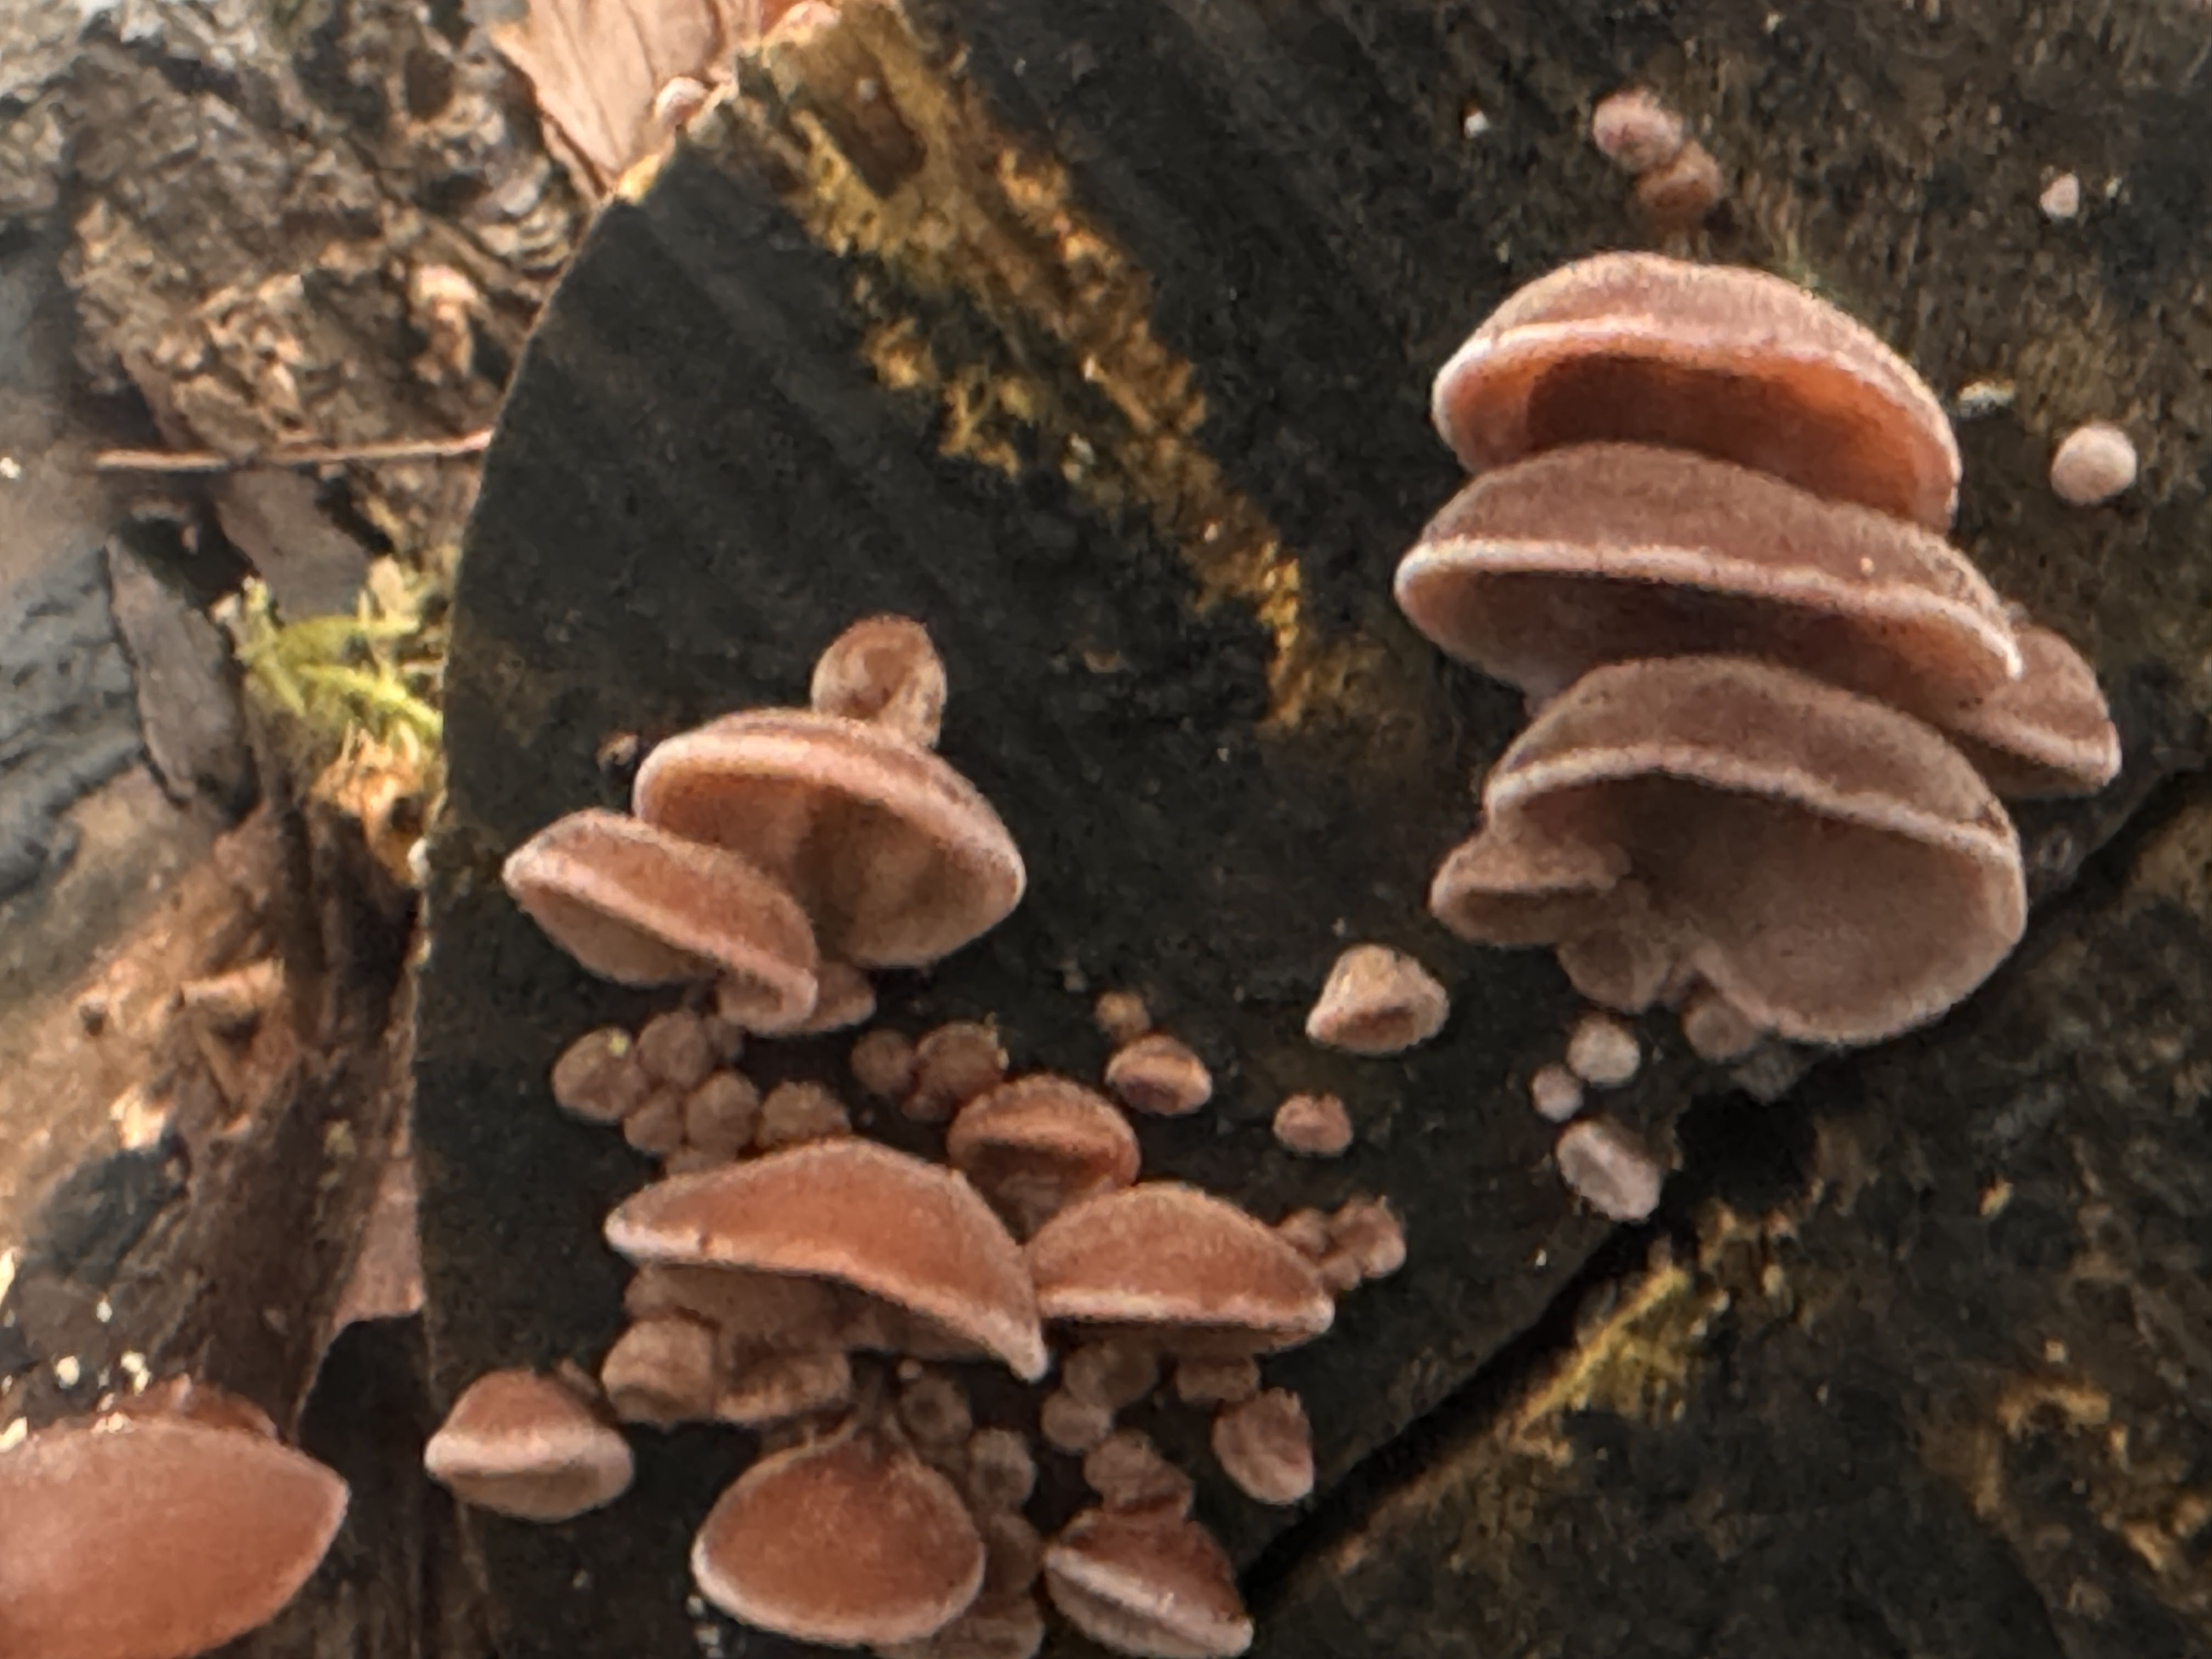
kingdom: Fungi
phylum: Basidiomycota
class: Agaricomycetes
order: Auriculariales
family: Auriculariaceae
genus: Auricularia
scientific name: Auricularia auricula-judae
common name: almindelig judasøre
